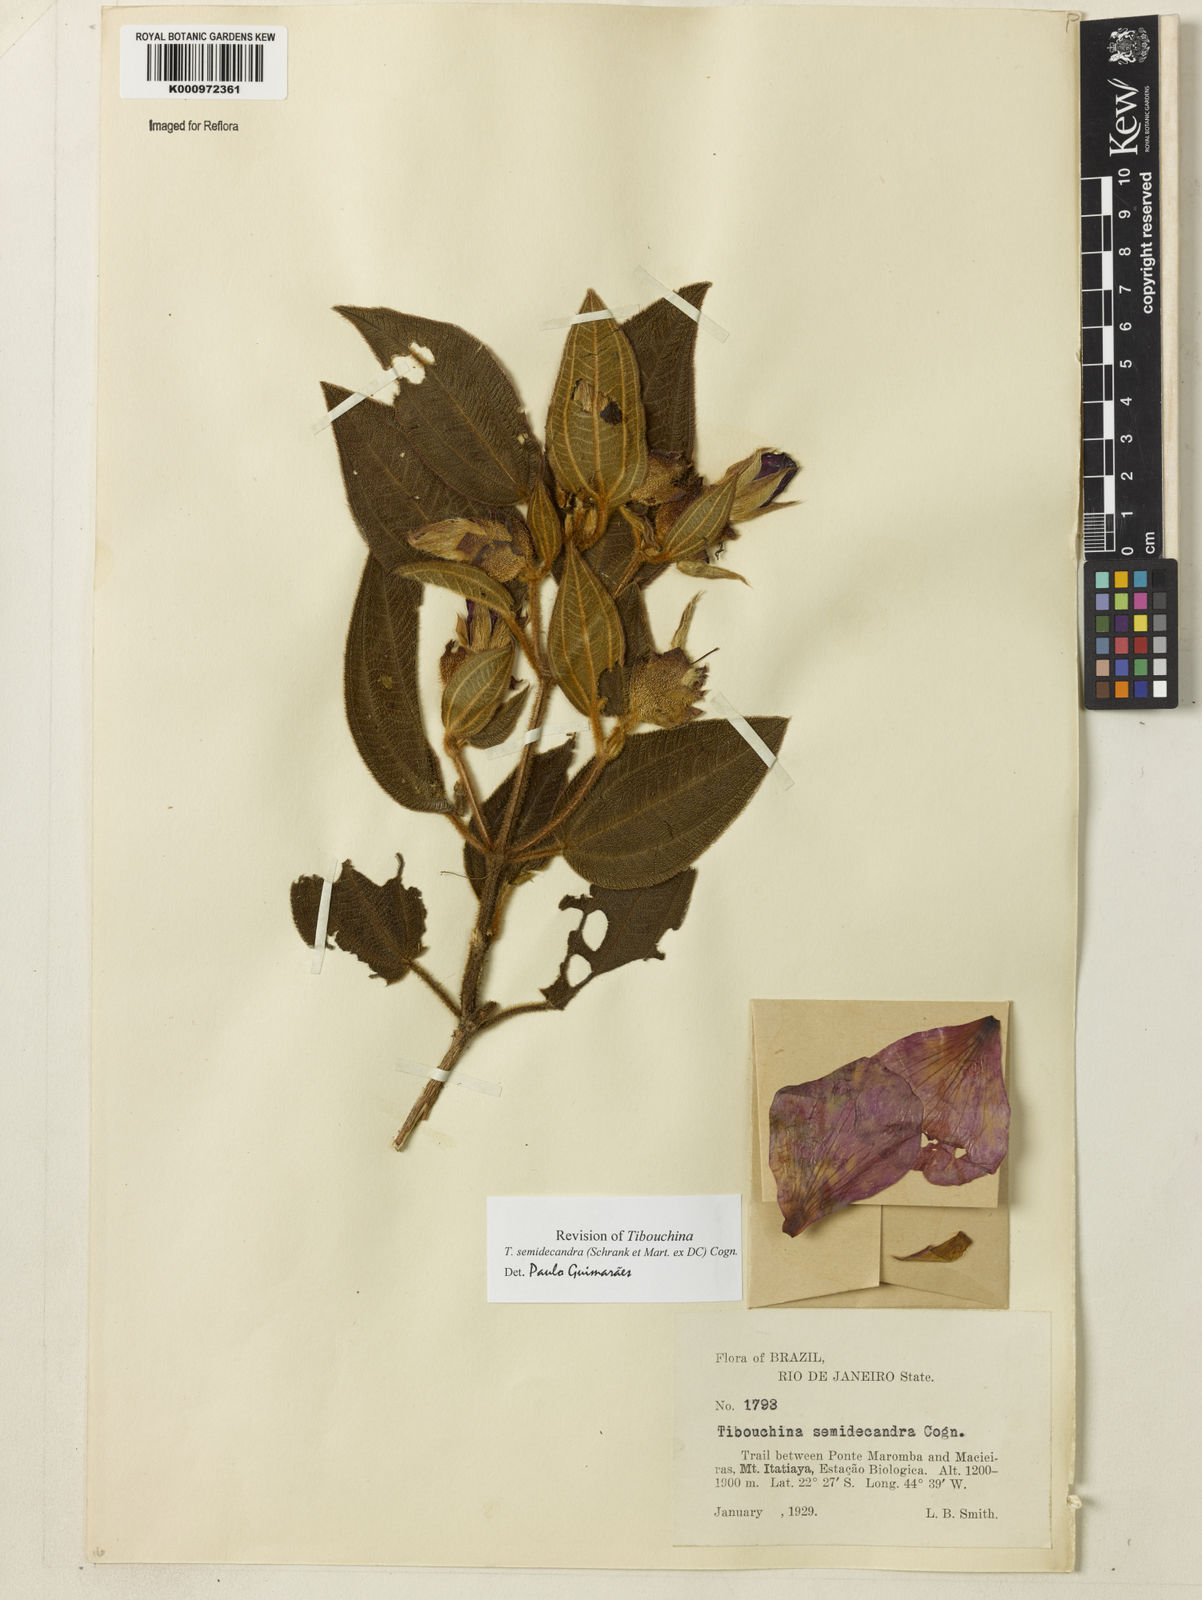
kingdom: Plantae
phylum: Tracheophyta
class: Magnoliopsida
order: Myrtales
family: Melastomataceae
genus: Pleroma
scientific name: Pleroma semidecandrum
